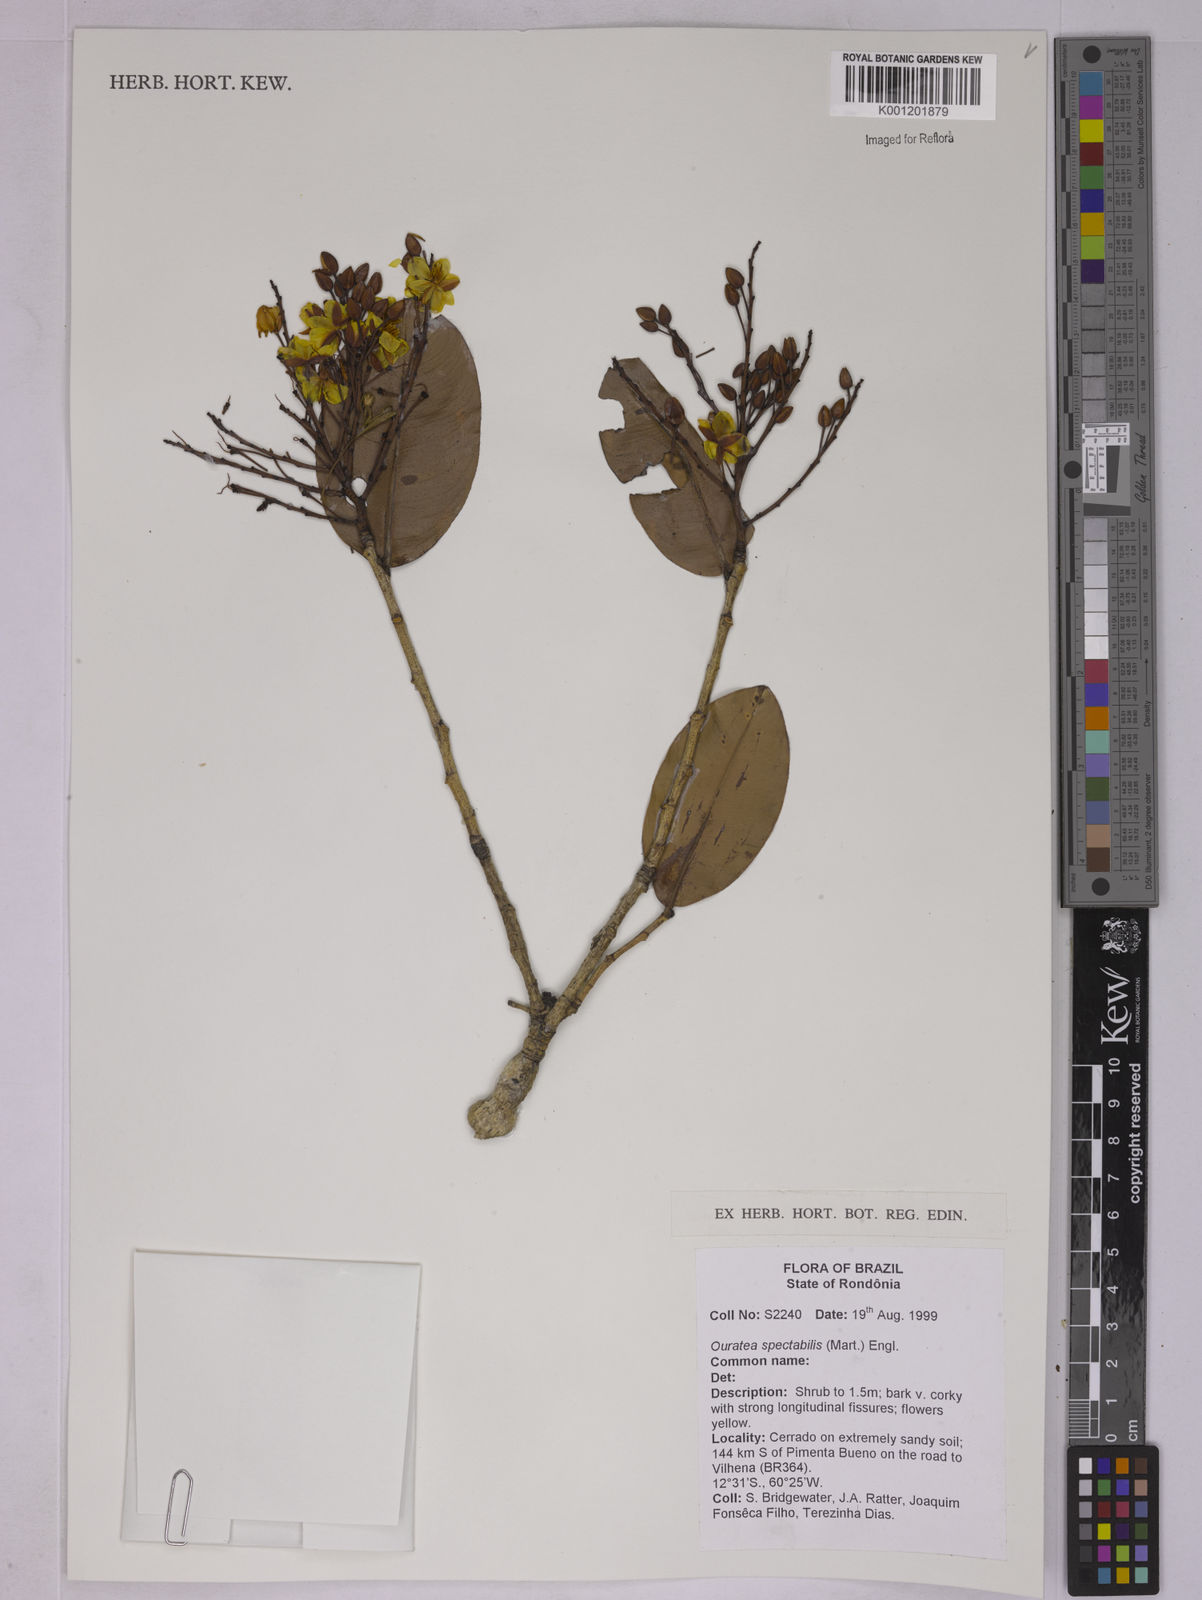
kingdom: Plantae
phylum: Tracheophyta
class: Magnoliopsida
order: Malpighiales
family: Ochnaceae
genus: Ouratea
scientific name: Ouratea spectabilis
